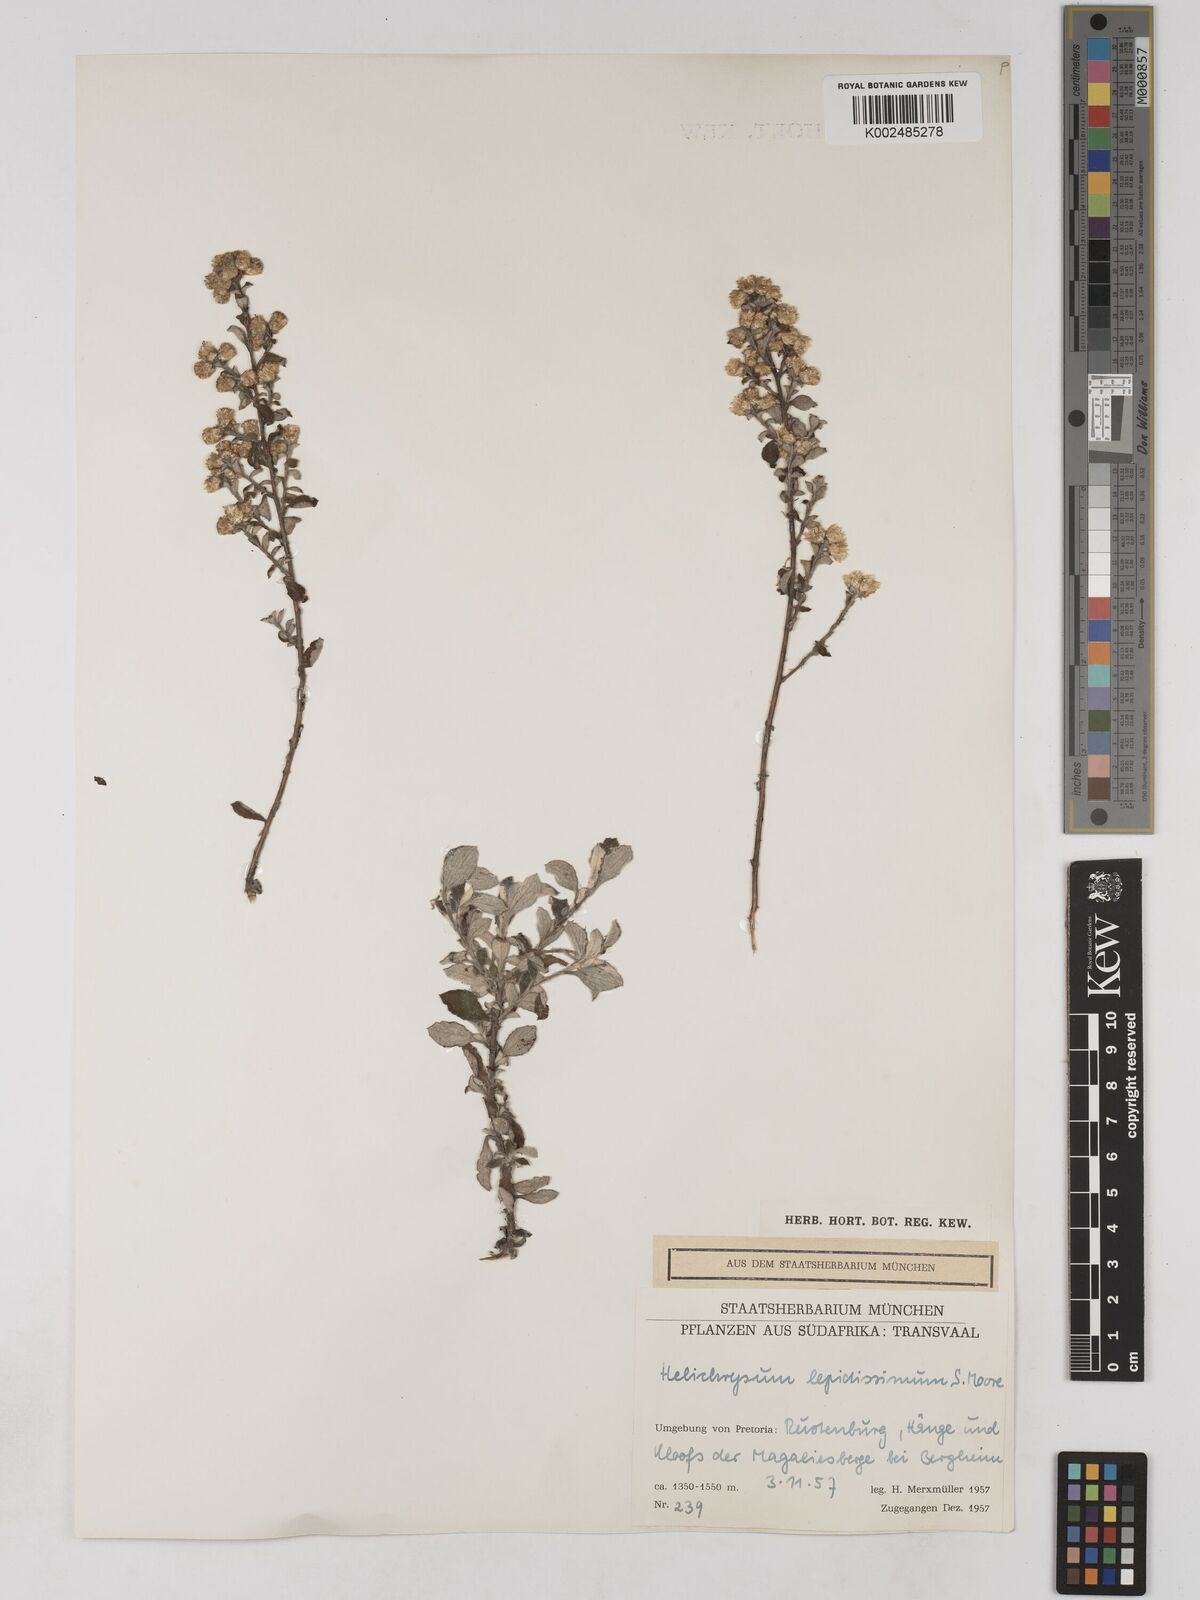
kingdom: Plantae
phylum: Tracheophyta
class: Magnoliopsida
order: Asterales
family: Asteraceae
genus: Helichrysum
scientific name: Helichrysum lepidissimum
